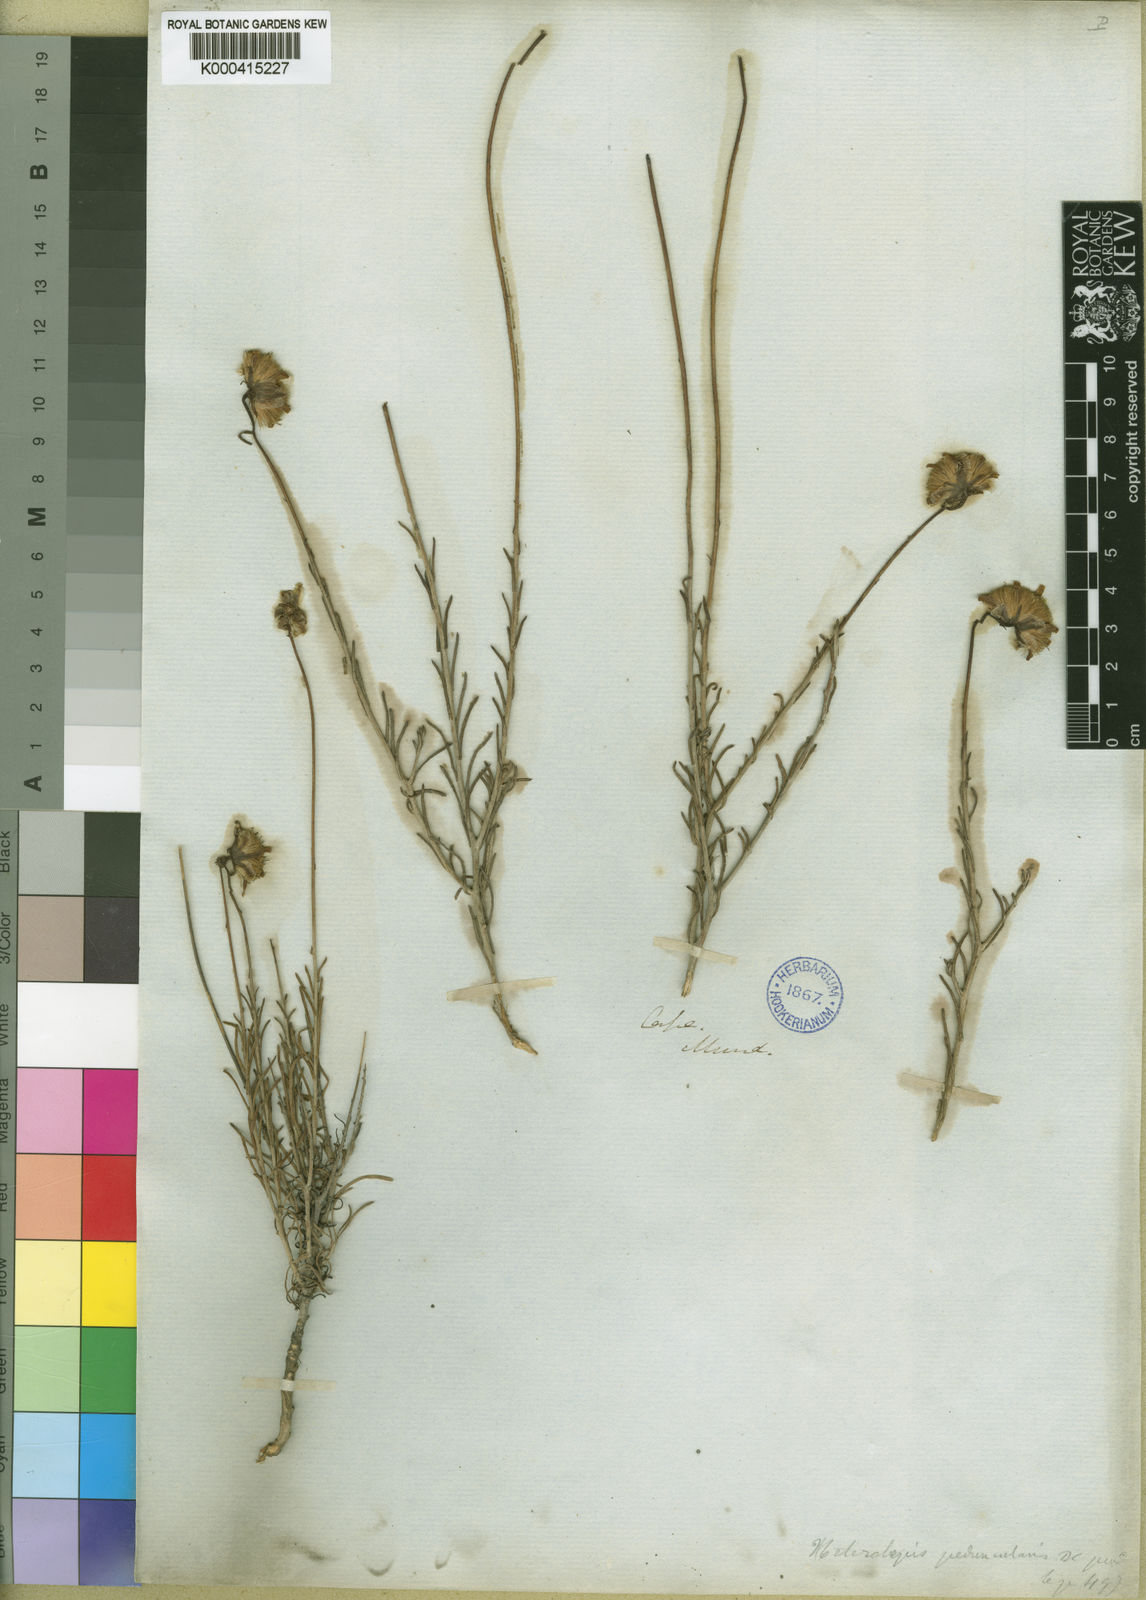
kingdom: Plantae
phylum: Tracheophyta
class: Magnoliopsida
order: Asterales
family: Asteraceae
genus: Heterolepis
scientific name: Heterolepis peduncularis
